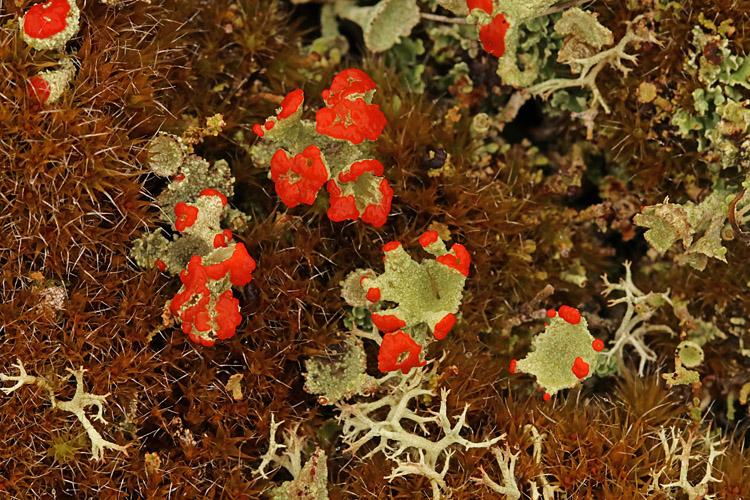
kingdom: Fungi
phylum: Ascomycota
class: Lecanoromycetes
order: Lecanorales
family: Cladoniaceae
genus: Cladonia
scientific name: Cladonia diversa
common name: rød bægerlav
